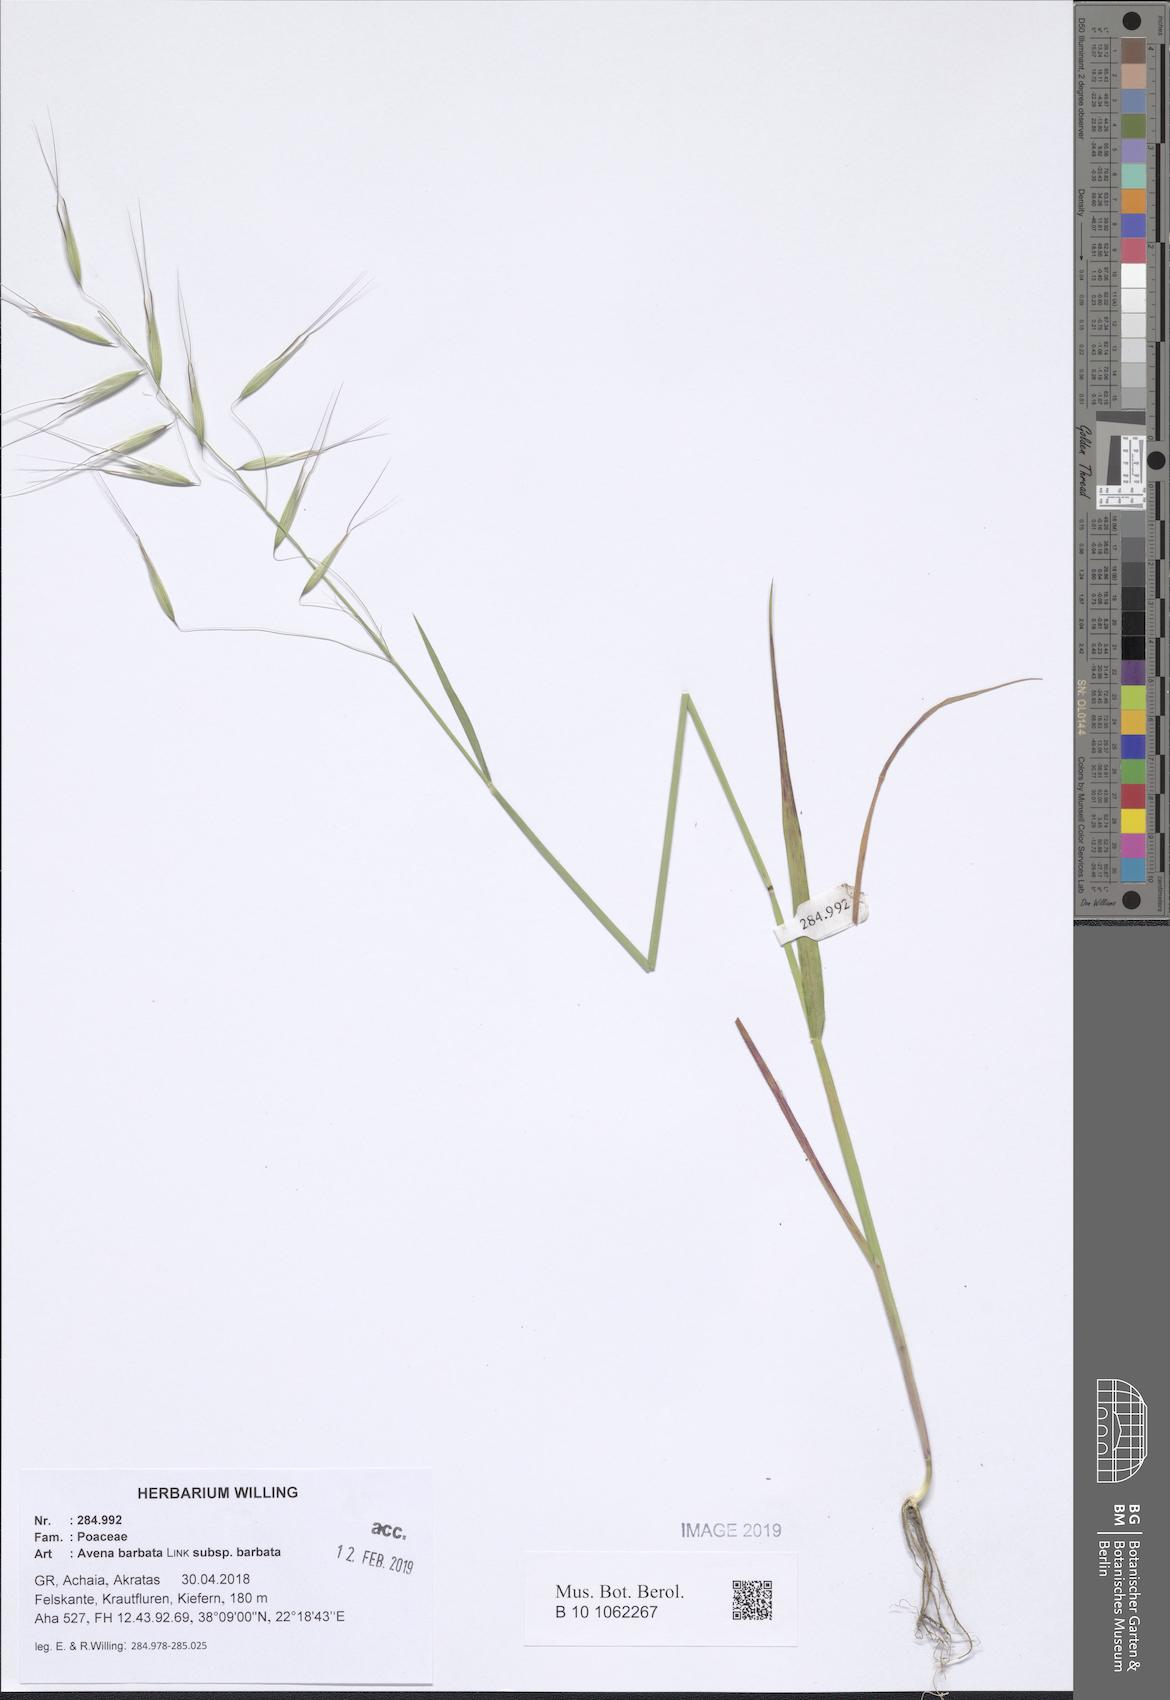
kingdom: Plantae
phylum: Tracheophyta
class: Liliopsida
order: Poales
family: Poaceae
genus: Avena
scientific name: Avena barbata
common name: Slender oat
